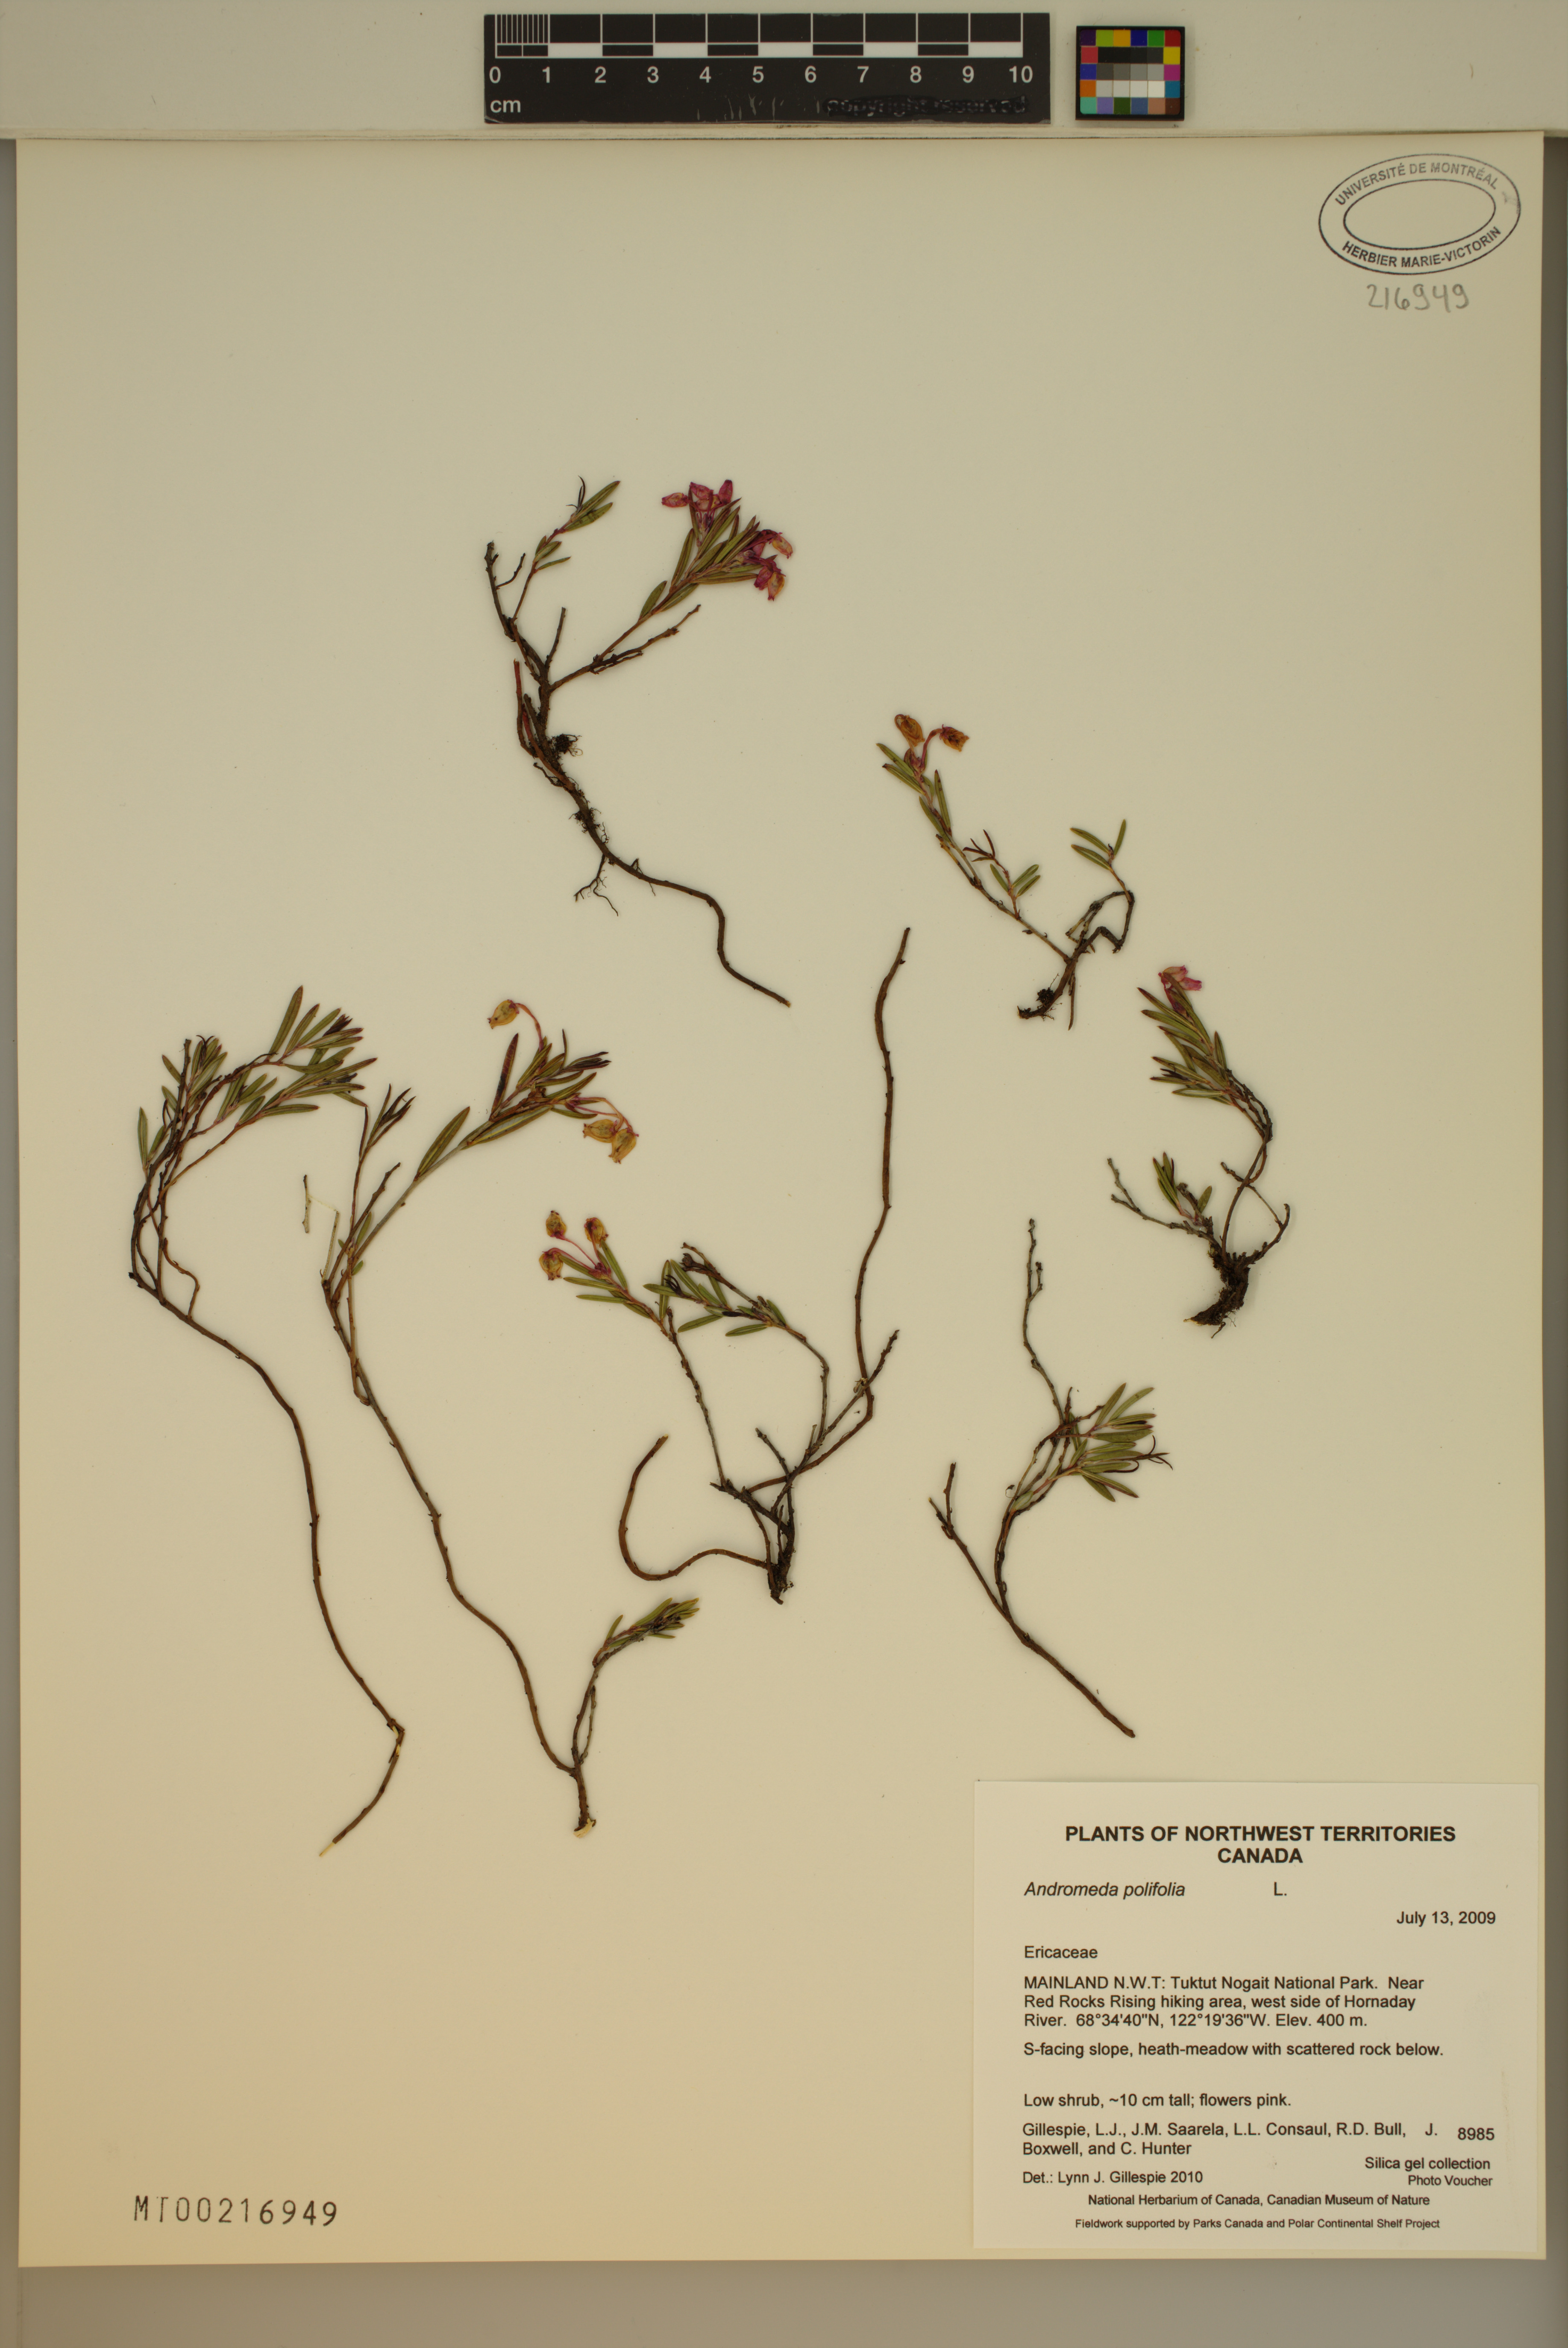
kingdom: Plantae
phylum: Tracheophyta
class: Magnoliopsida
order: Ericales
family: Ericaceae
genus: Andromeda
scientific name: Andromeda polifolia
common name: Bog-rosemary
